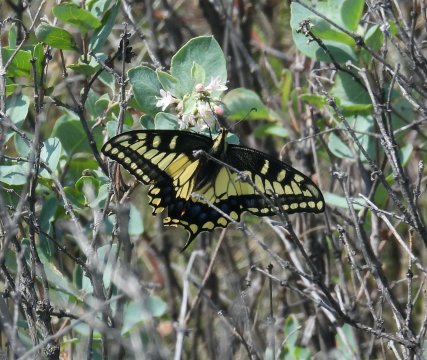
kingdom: Animalia
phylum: Arthropoda
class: Insecta
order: Lepidoptera
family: Papilionidae
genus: Papilio
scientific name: Papilio zelicaon
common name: Anise Swallowtail
